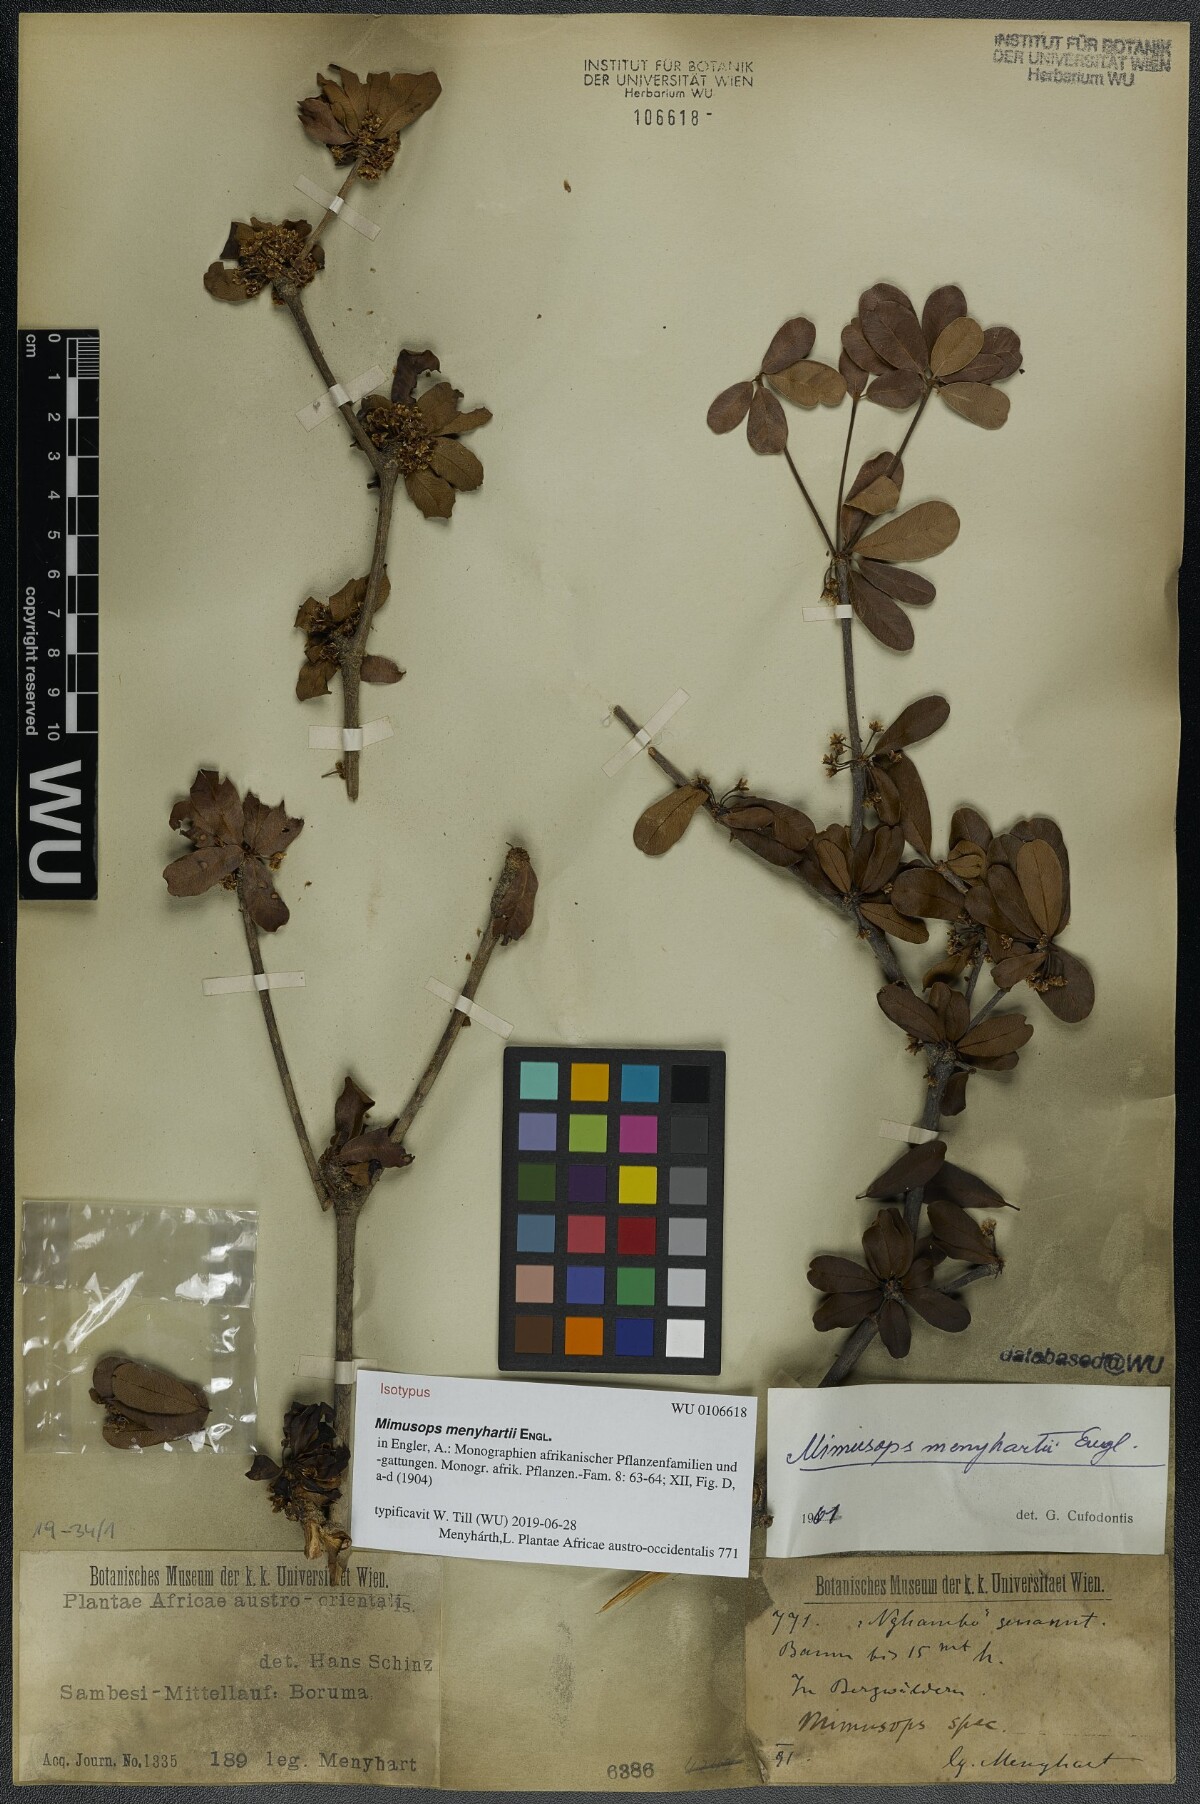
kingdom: Plantae
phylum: Tracheophyta
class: Magnoliopsida
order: Ericales
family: Sapotaceae
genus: Manilkara
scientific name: Manilkara mochisia
